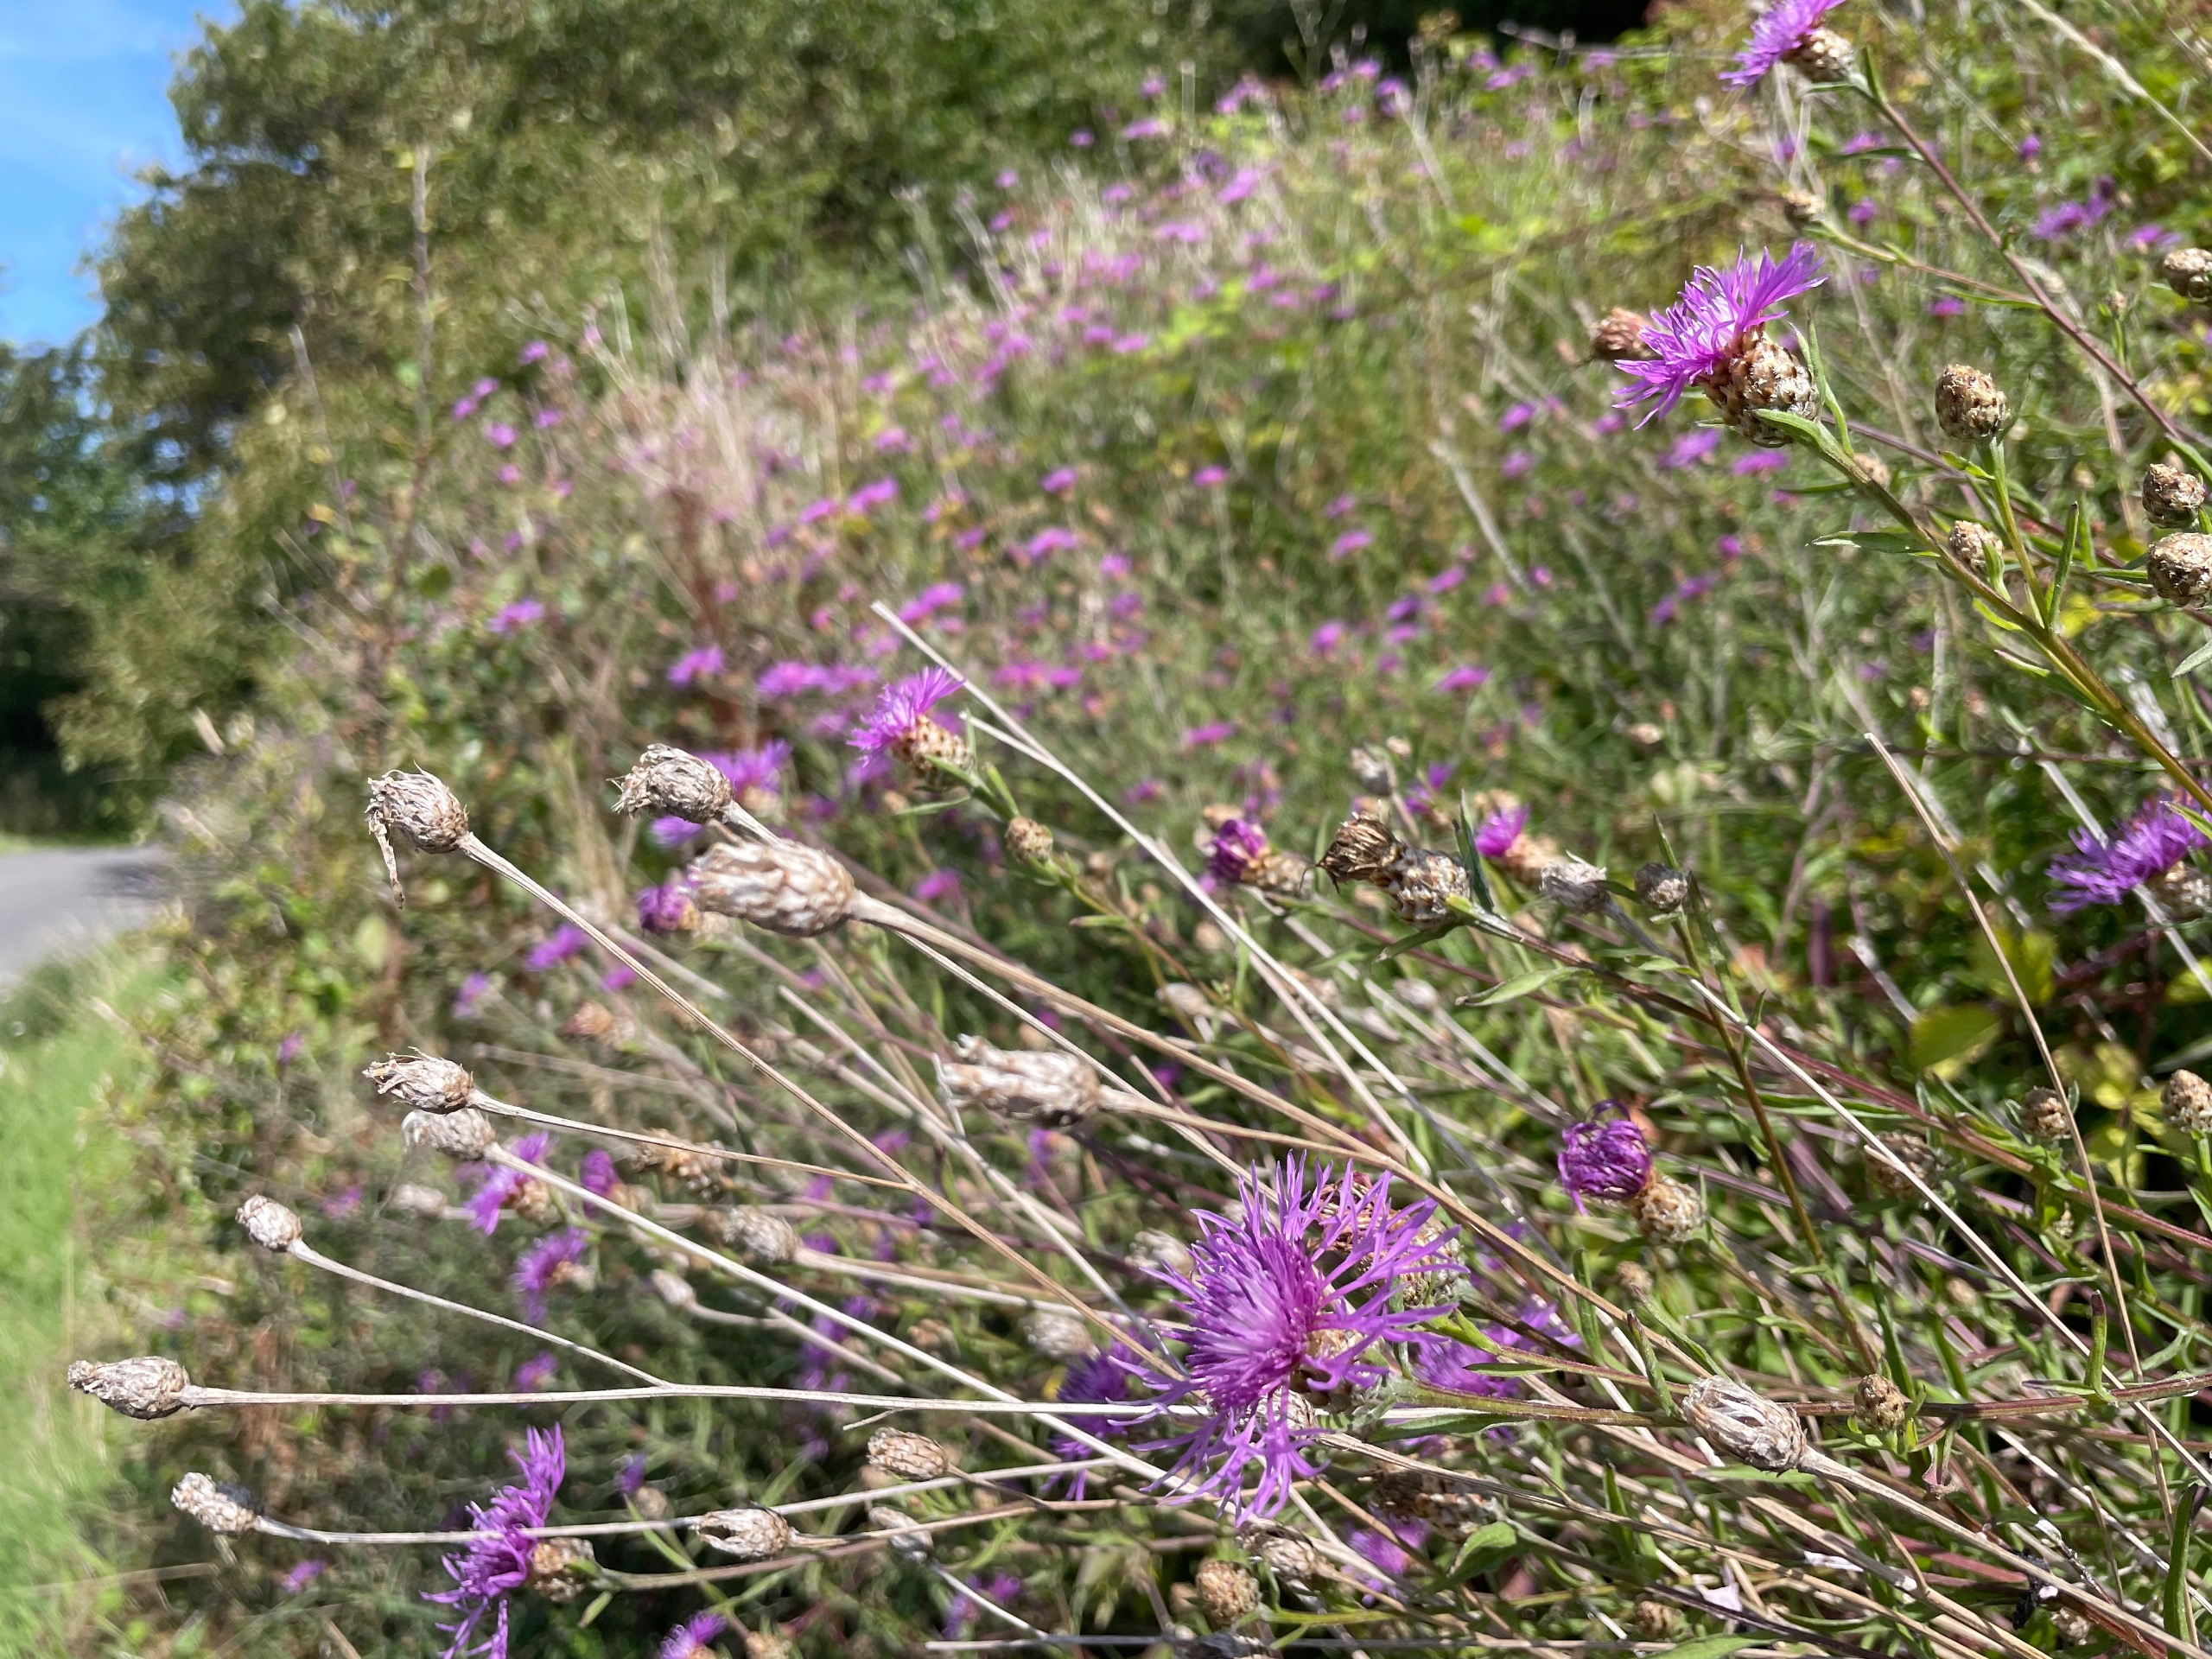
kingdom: Plantae
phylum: Tracheophyta
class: Magnoliopsida
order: Asterales
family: Asteraceae
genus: Centaurea
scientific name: Centaurea jacea
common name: Almindelig knopurt
